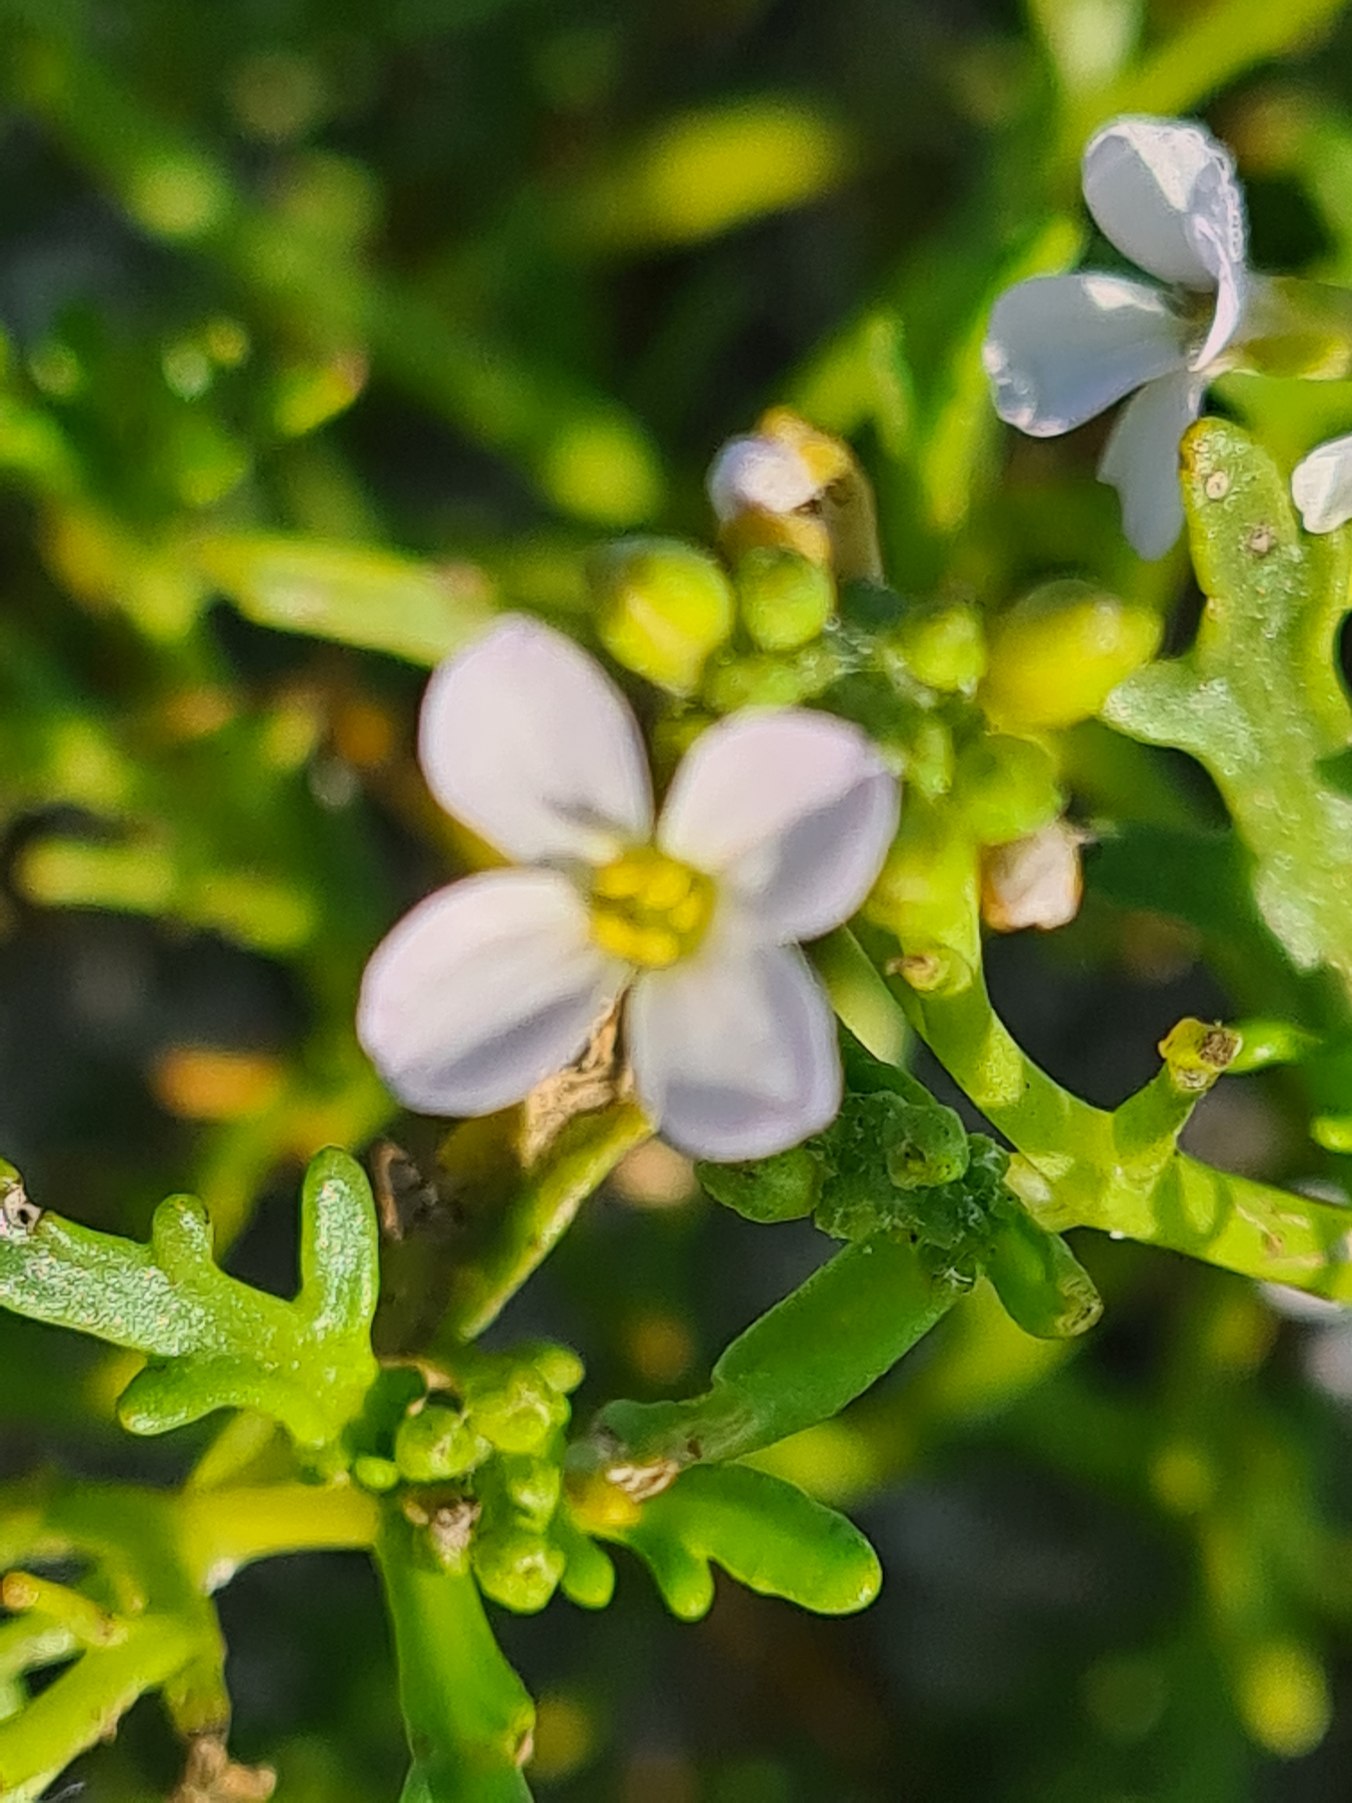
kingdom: Plantae
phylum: Tracheophyta
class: Magnoliopsida
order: Brassicales
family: Brassicaceae
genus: Cakile
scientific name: Cakile maritima
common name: Strandsennep
